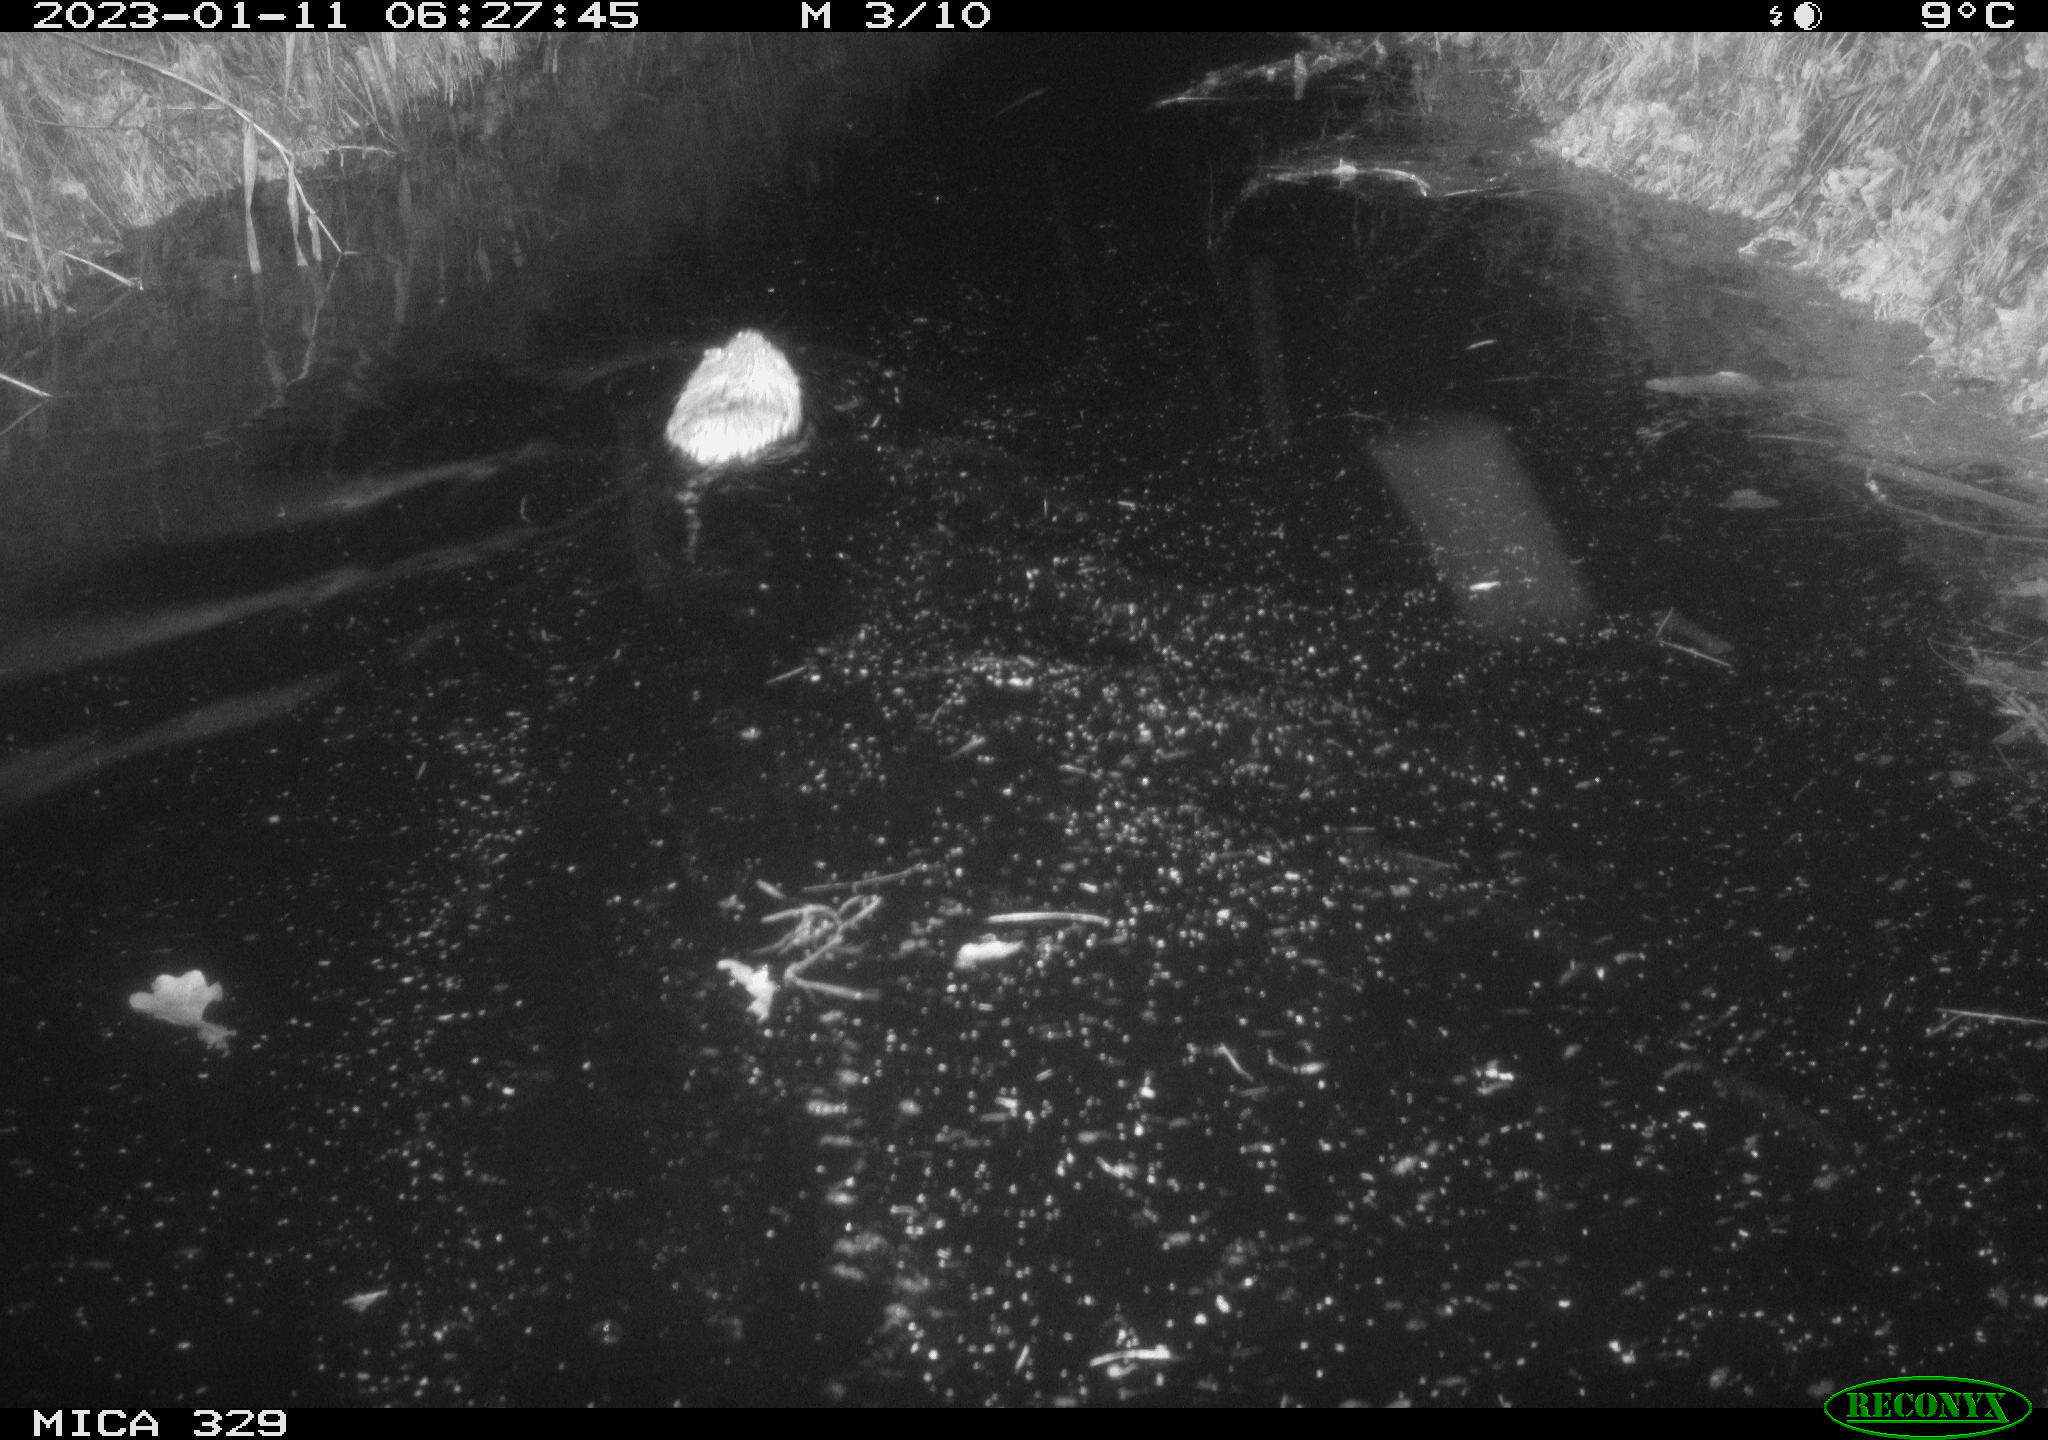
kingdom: Animalia
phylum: Chordata
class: Mammalia
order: Rodentia
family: Cricetidae
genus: Ondatra
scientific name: Ondatra zibethicus
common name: Muskrat
